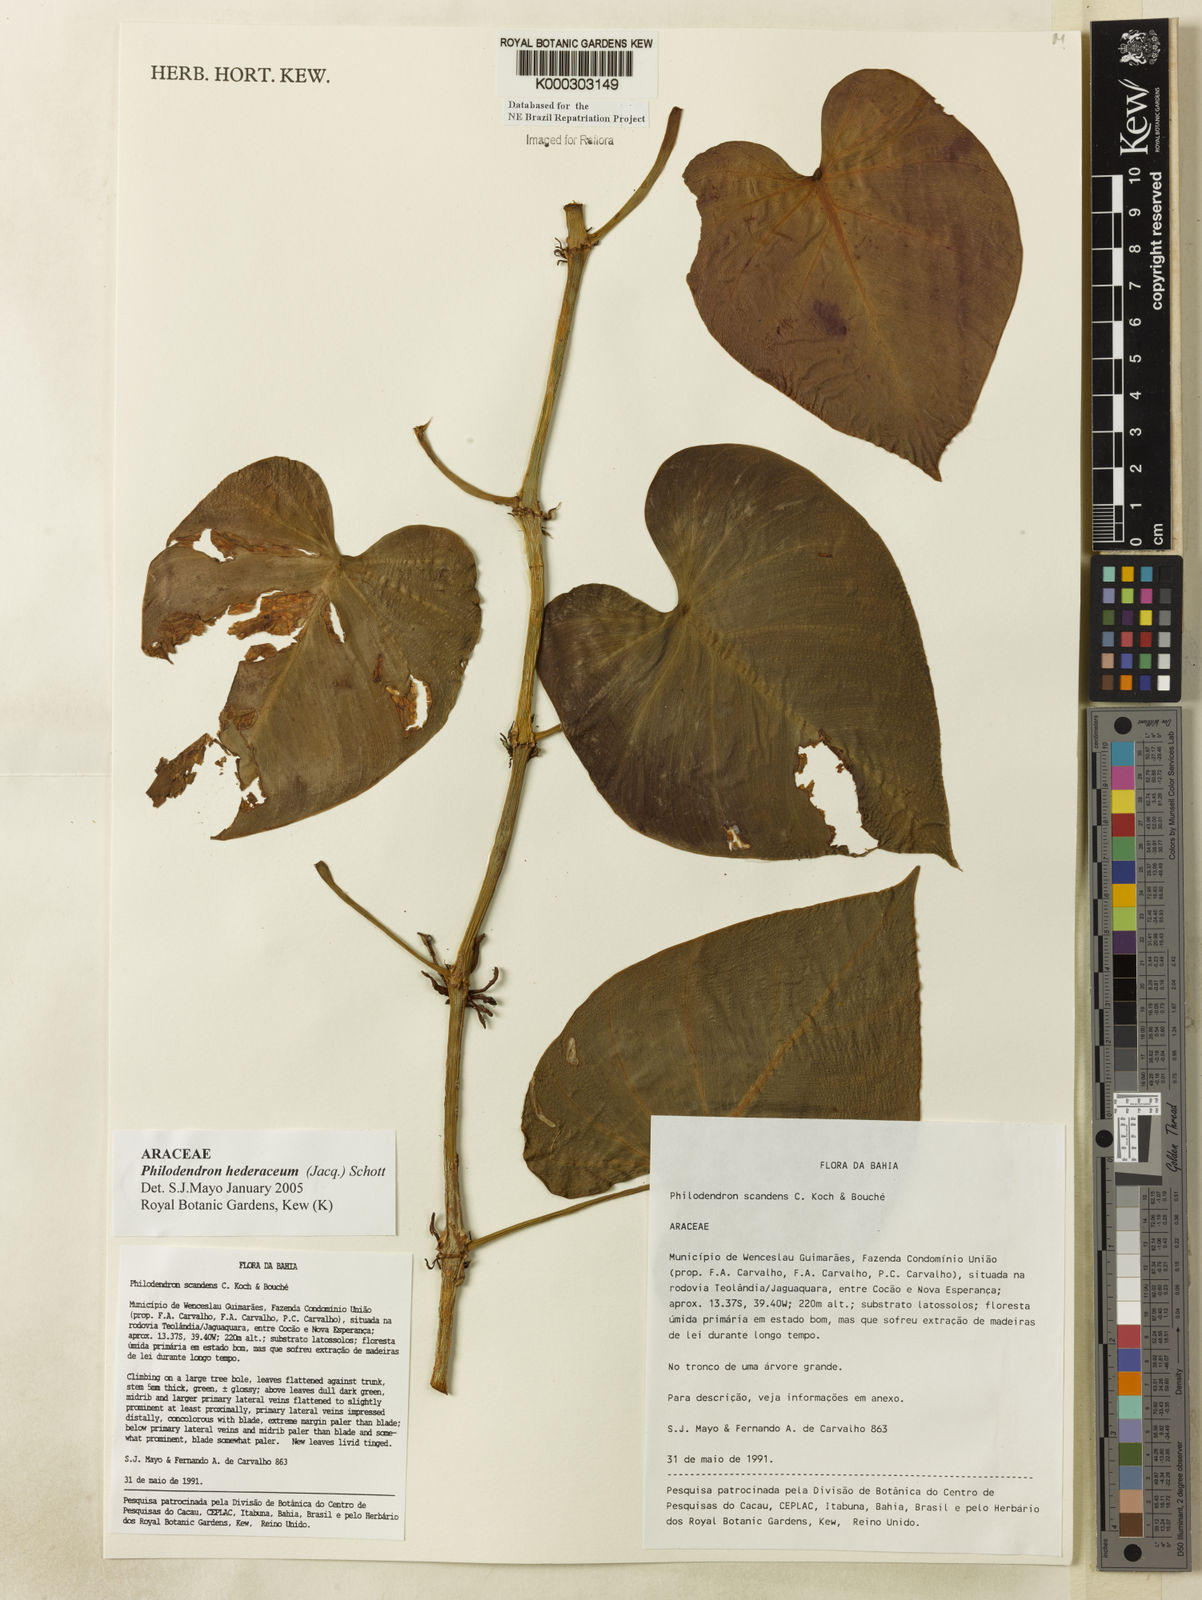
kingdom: Plantae
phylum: Tracheophyta
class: Liliopsida
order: Alismatales
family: Araceae
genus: Philodendron
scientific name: Philodendron hederaceum
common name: Vilevine
